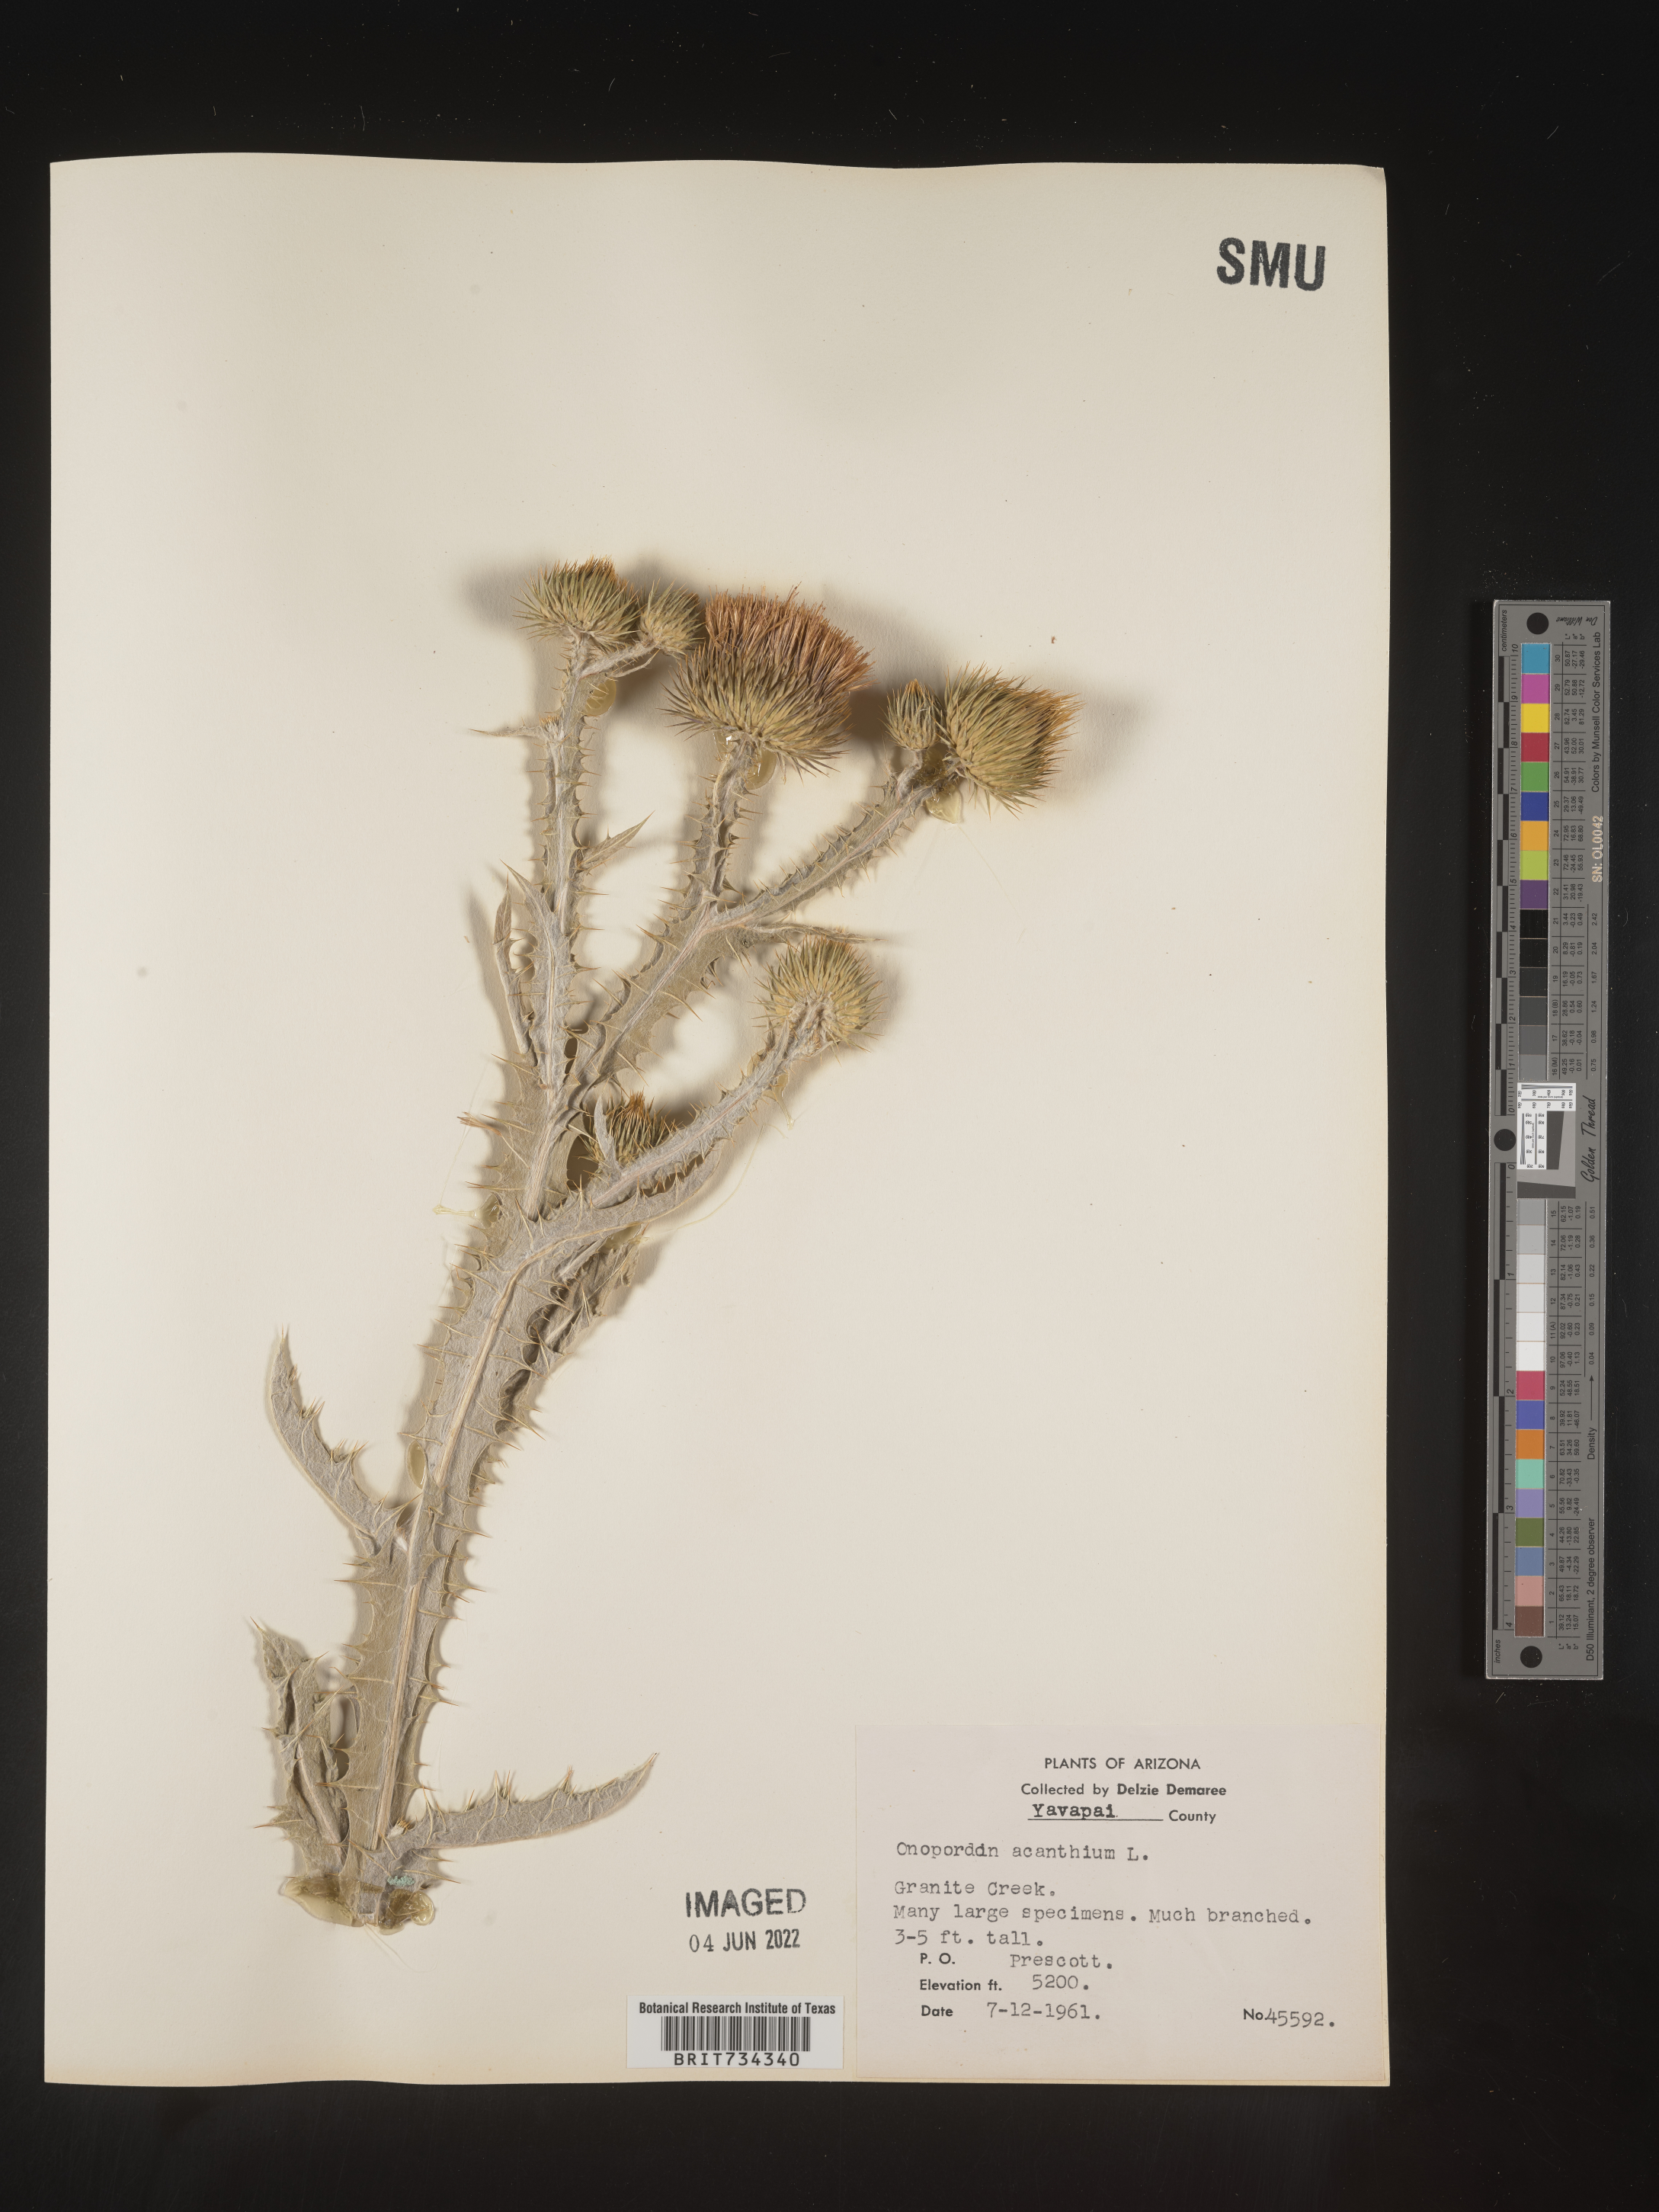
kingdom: Plantae
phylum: Tracheophyta
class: Magnoliopsida
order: Asterales
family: Asteraceae
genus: Onopordum
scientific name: Onopordum acanthium
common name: Scotch thistle
